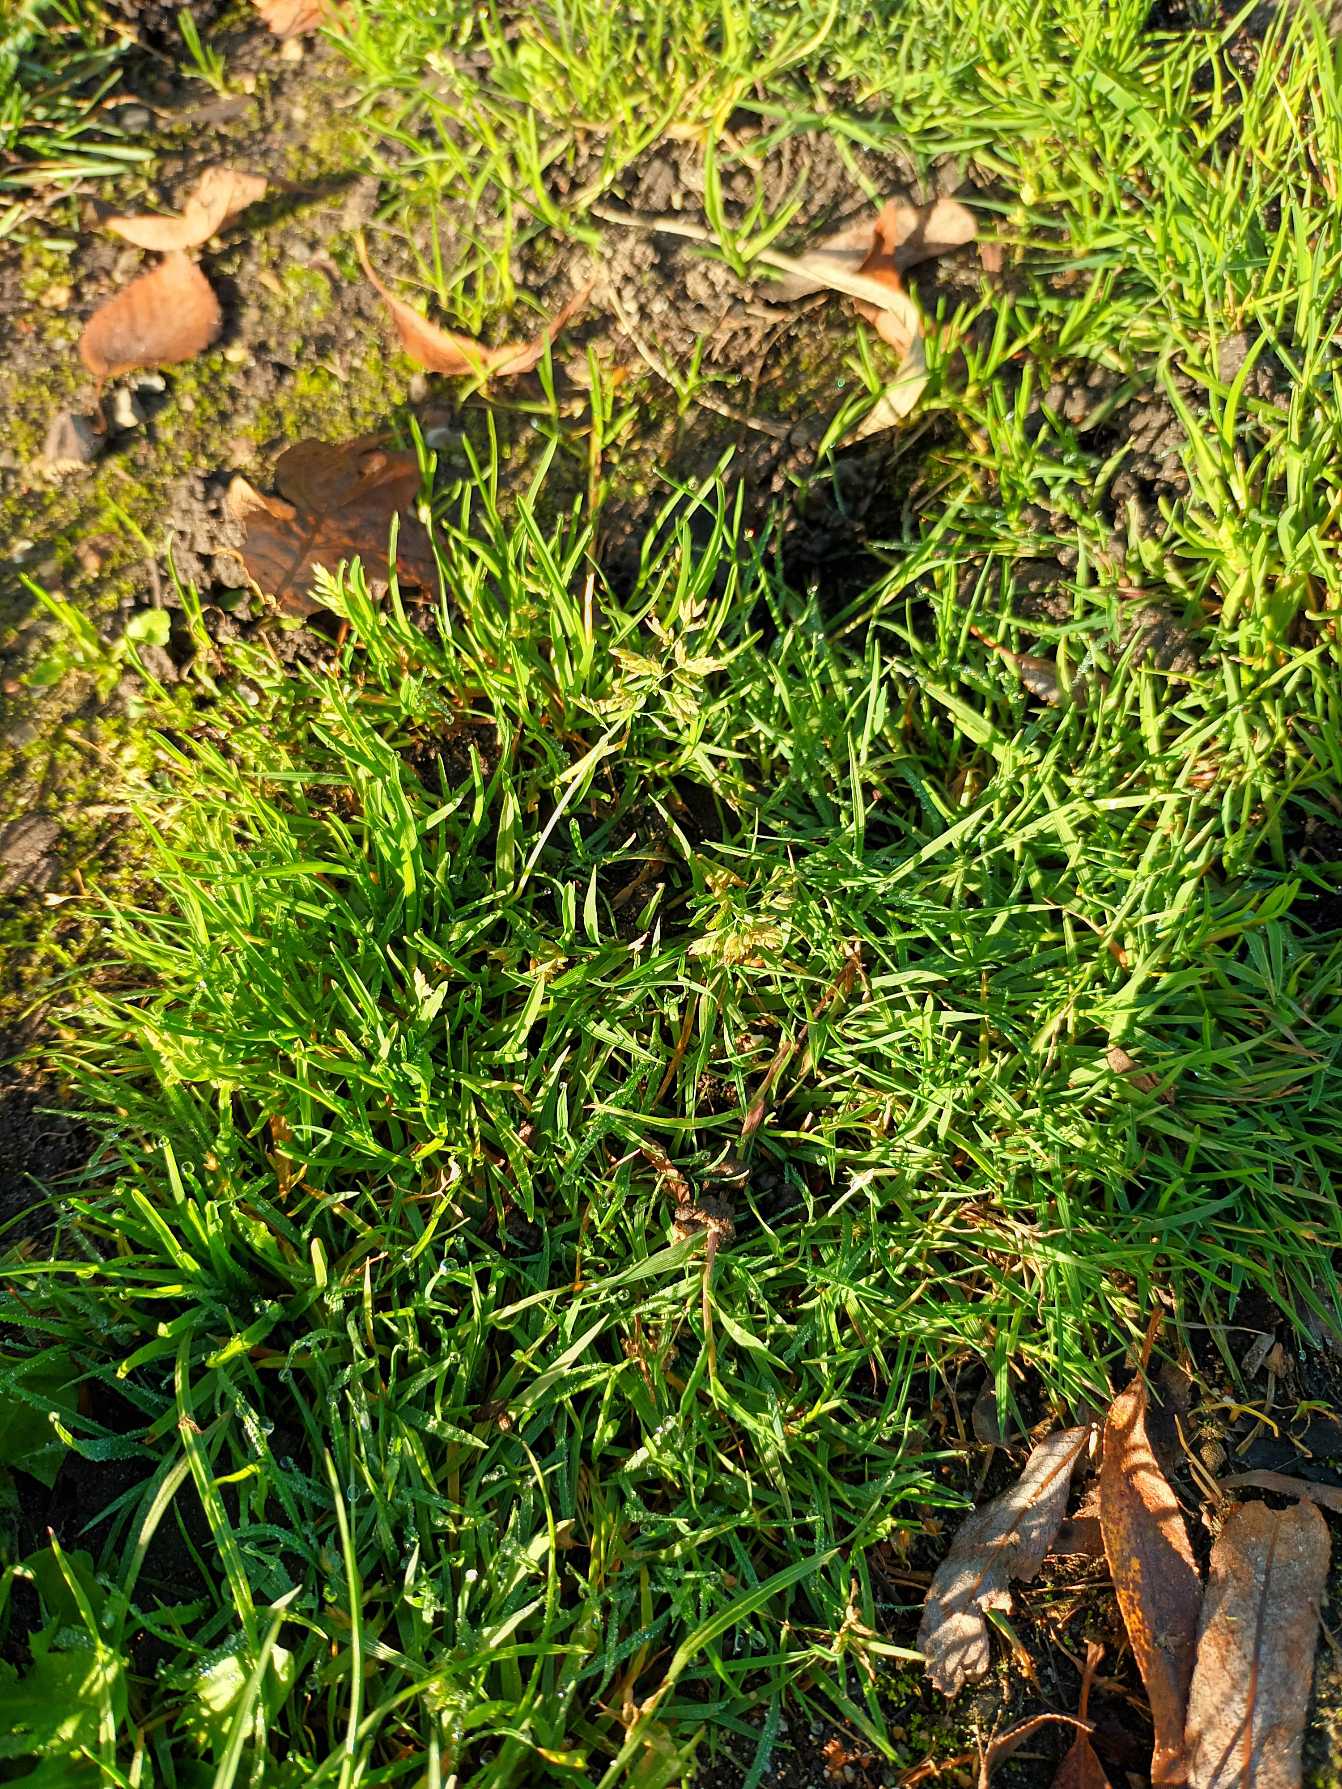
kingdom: Plantae
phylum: Tracheophyta
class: Liliopsida
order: Poales
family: Poaceae
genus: Poa
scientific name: Poa annua
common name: Enårig rapgræs
